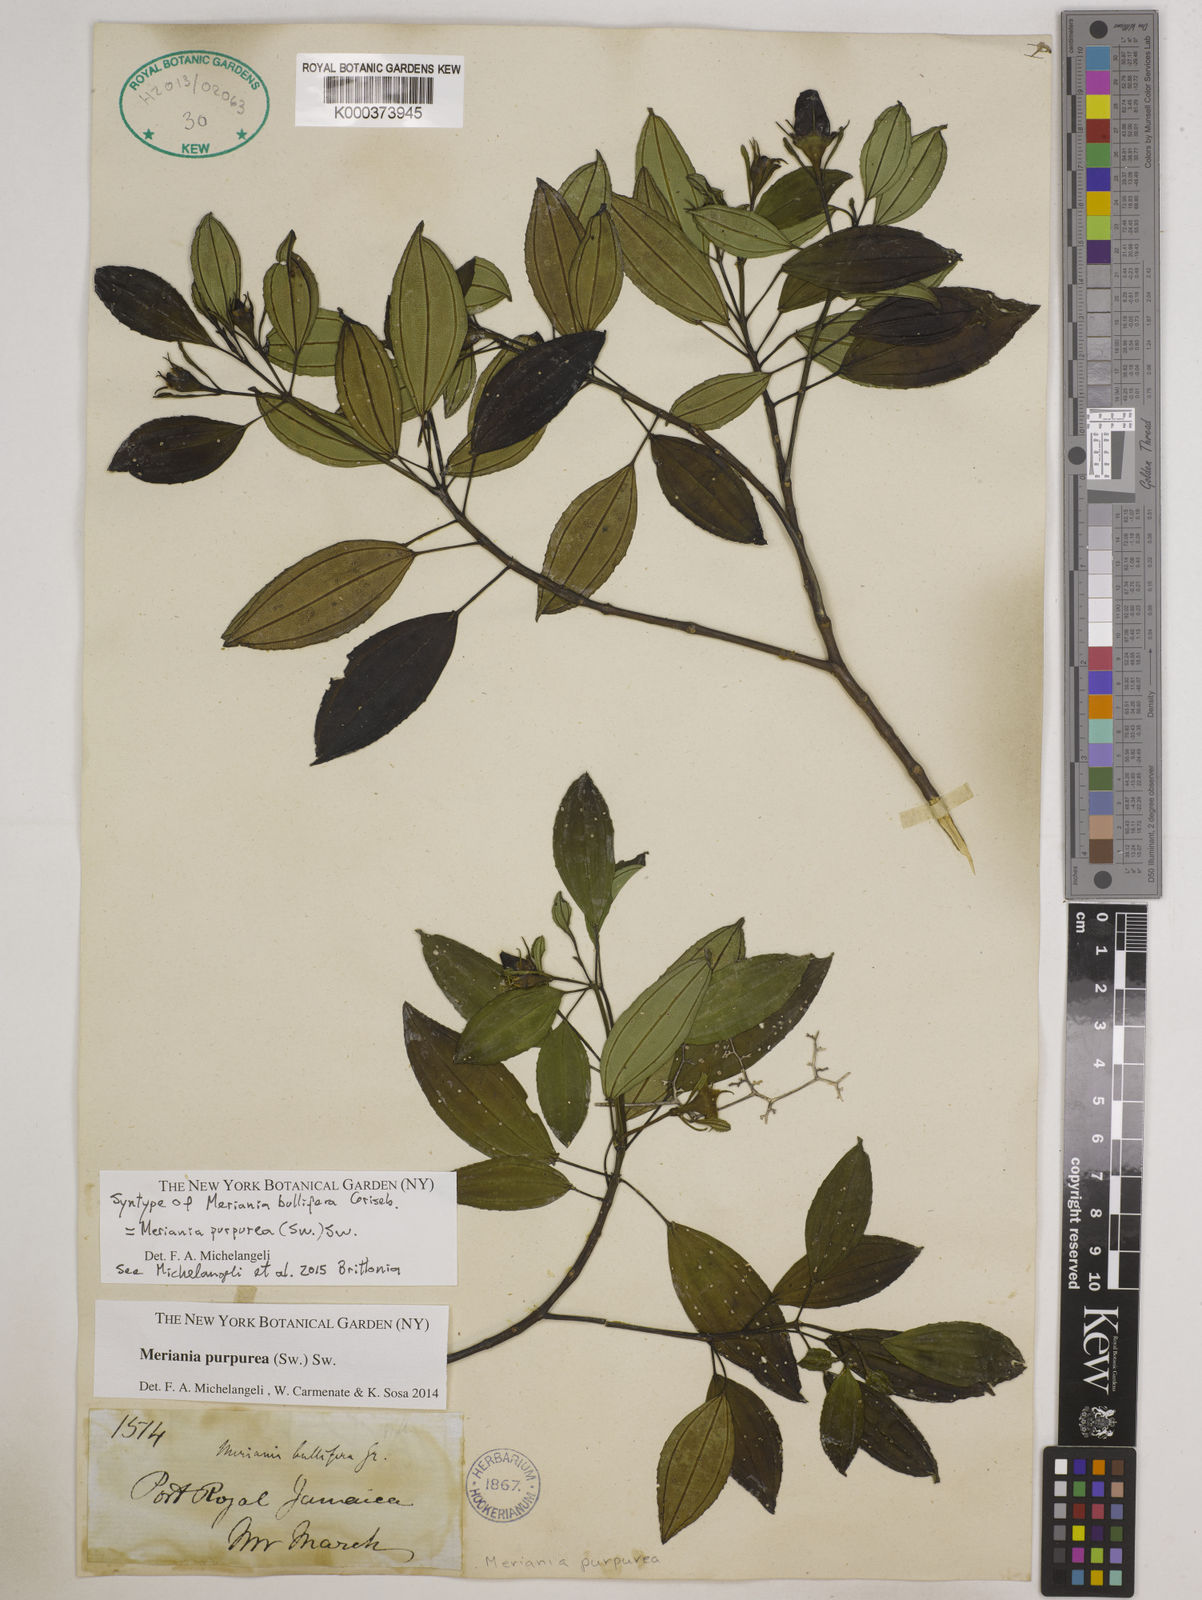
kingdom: Plantae
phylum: Tracheophyta
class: Magnoliopsida
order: Myrtales
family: Melastomataceae
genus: Meriania
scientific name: Meriania purpurea
